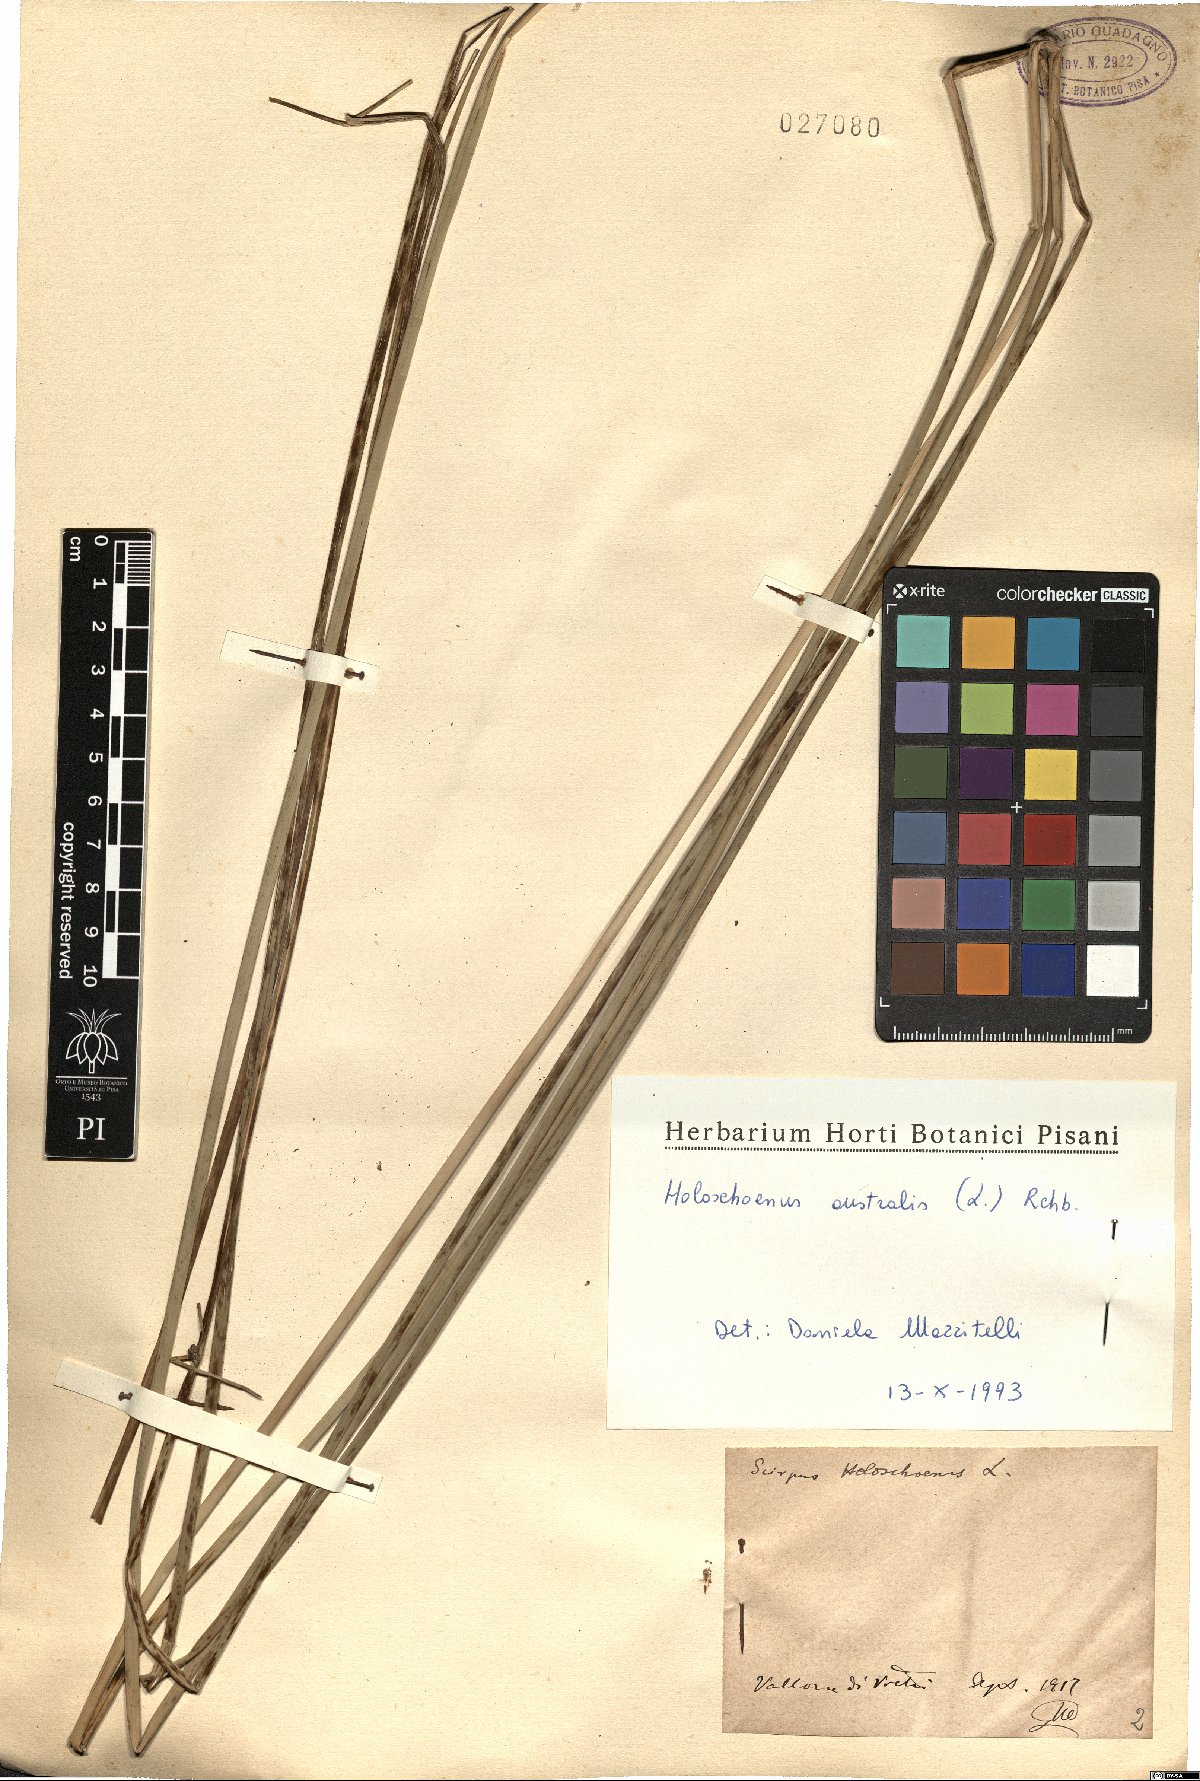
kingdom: Plantae
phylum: Tracheophyta
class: Liliopsida
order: Poales
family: Cyperaceae
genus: Scirpoides
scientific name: Scirpoides holoschoenus
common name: Round-headed club-rush
